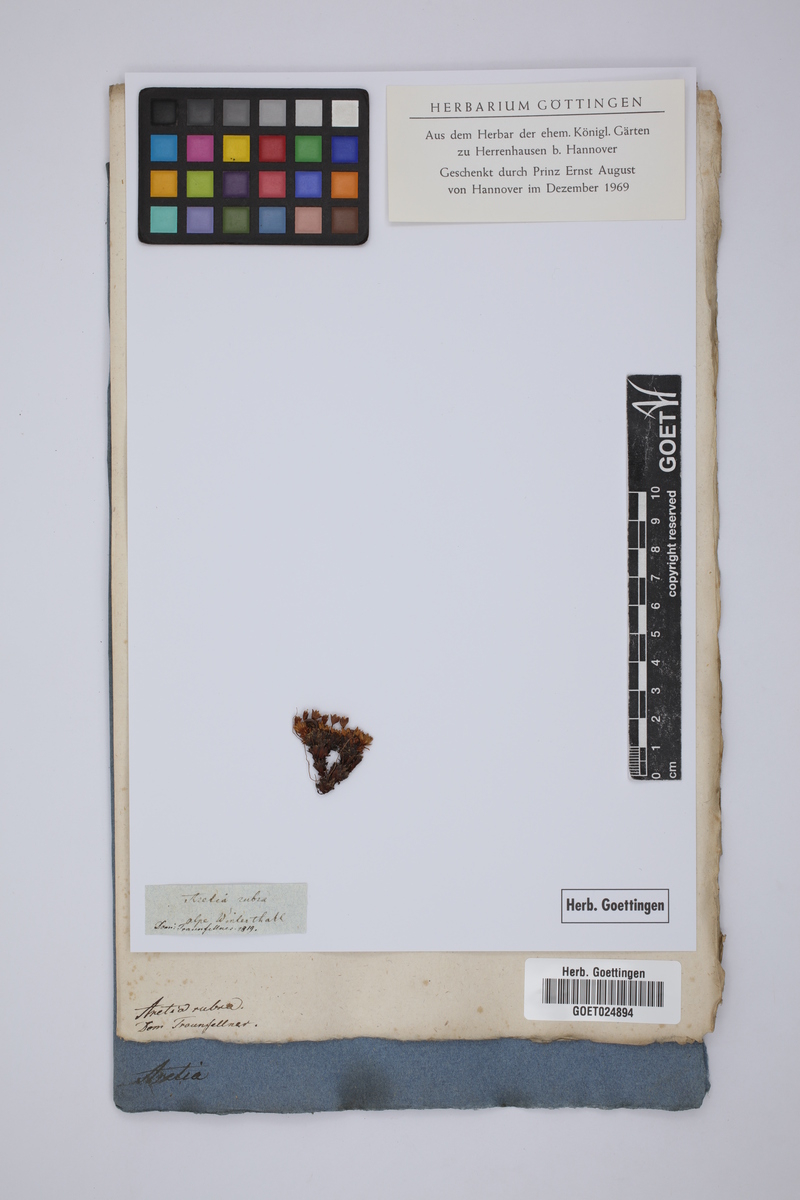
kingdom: Plantae
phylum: Tracheophyta
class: Magnoliopsida
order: Ericales
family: Primulaceae
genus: Androsace
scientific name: Androsace hedraeantha
